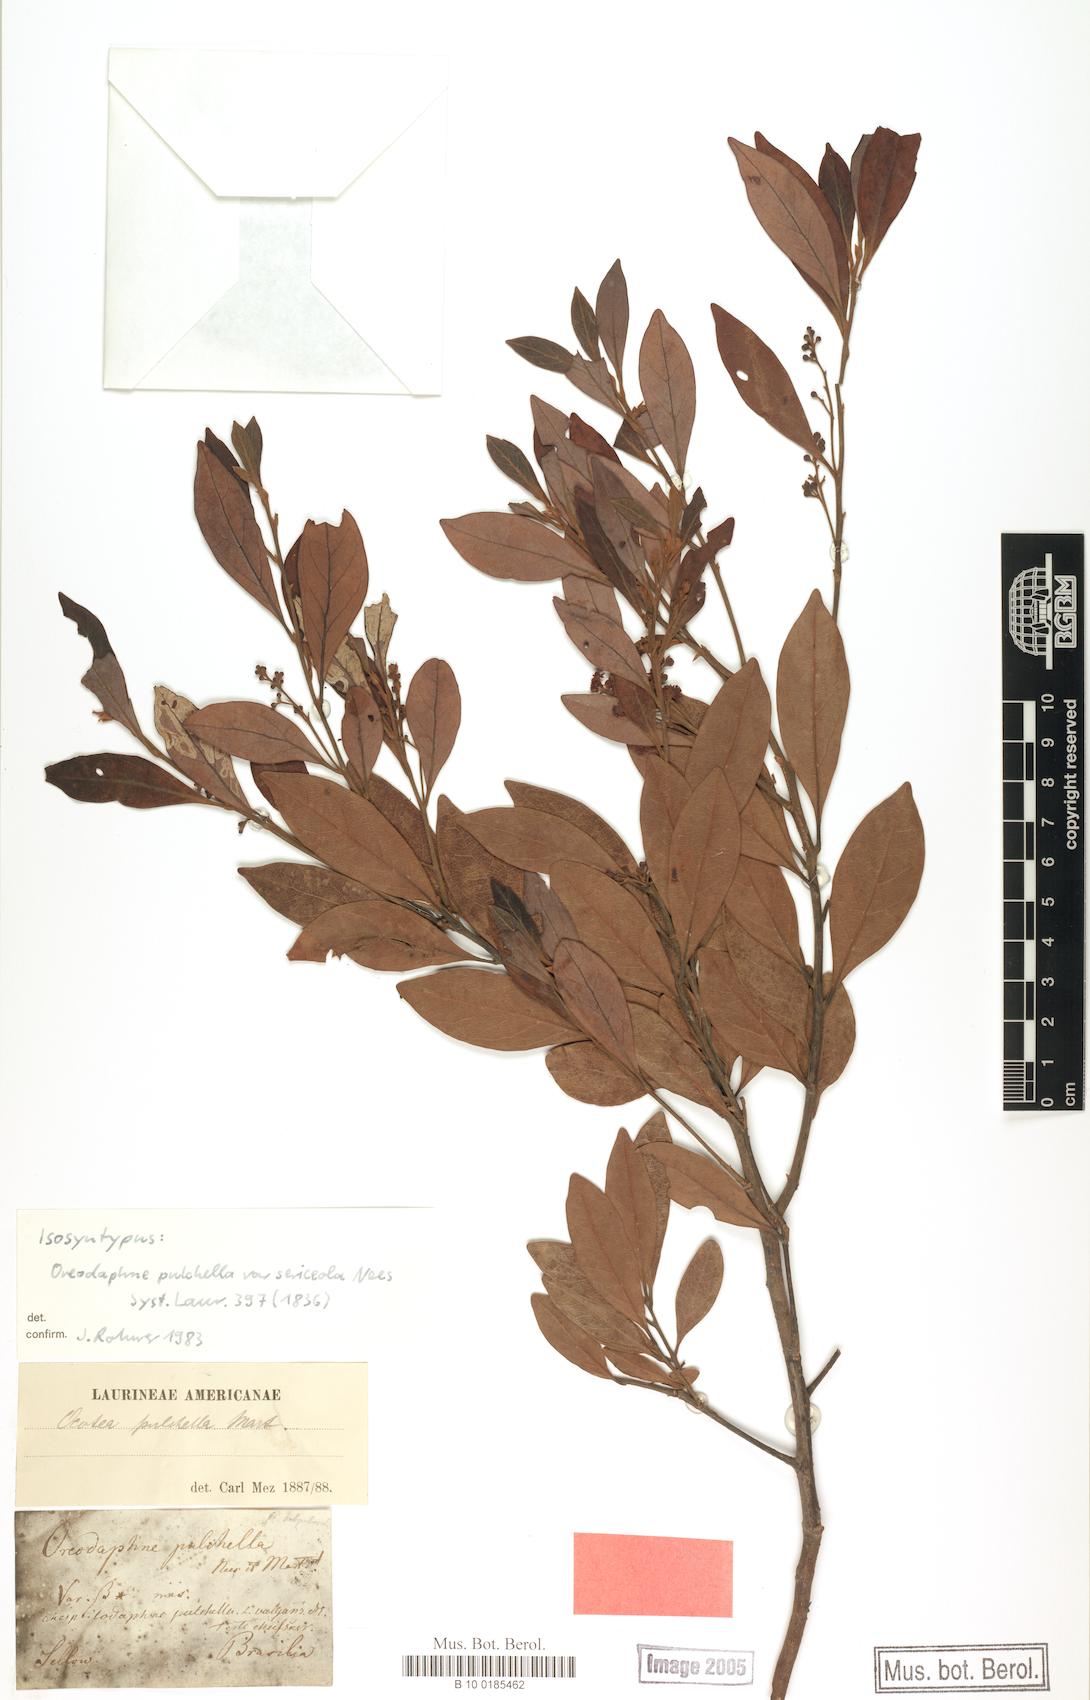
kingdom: Plantae
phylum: Tracheophyta
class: Magnoliopsida
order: Laurales
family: Lauraceae
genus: Mespilodaphne
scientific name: Mespilodaphne pulchella
